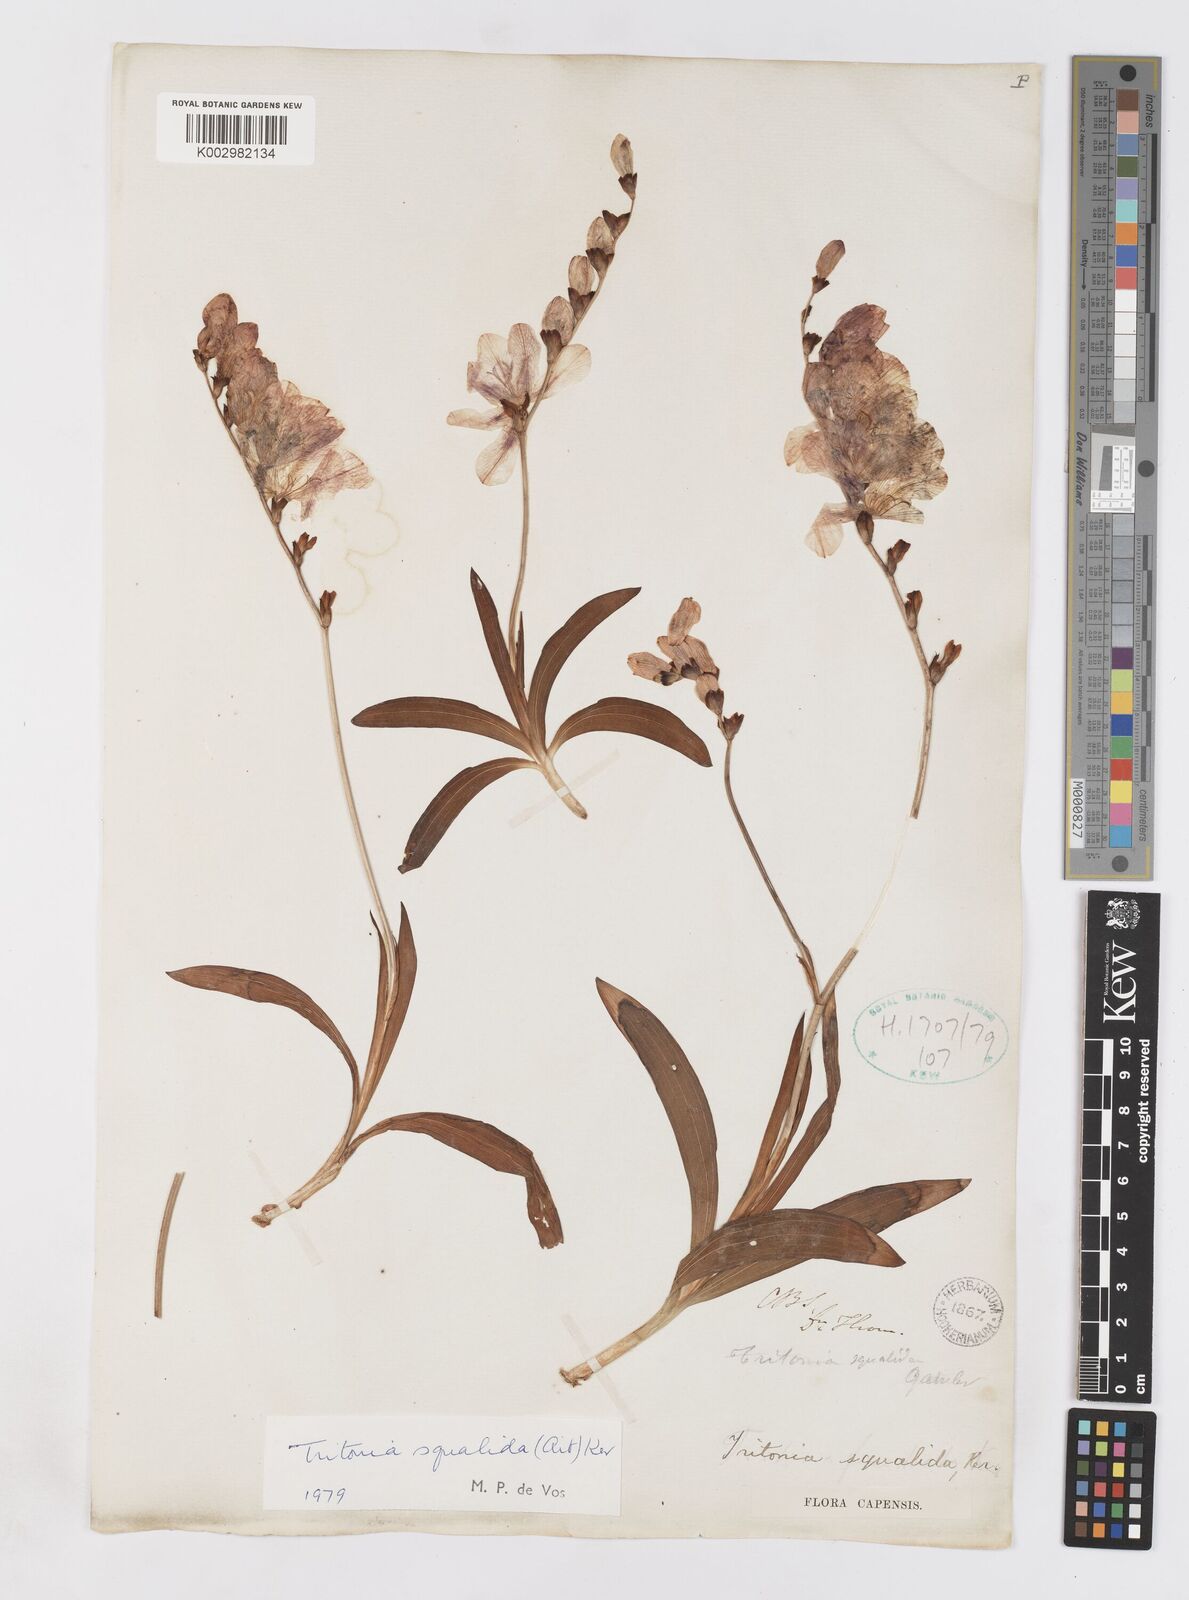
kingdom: Plantae
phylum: Tracheophyta
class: Liliopsida
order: Asparagales
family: Iridaceae
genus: Tritonia
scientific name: Tritonia squalida
